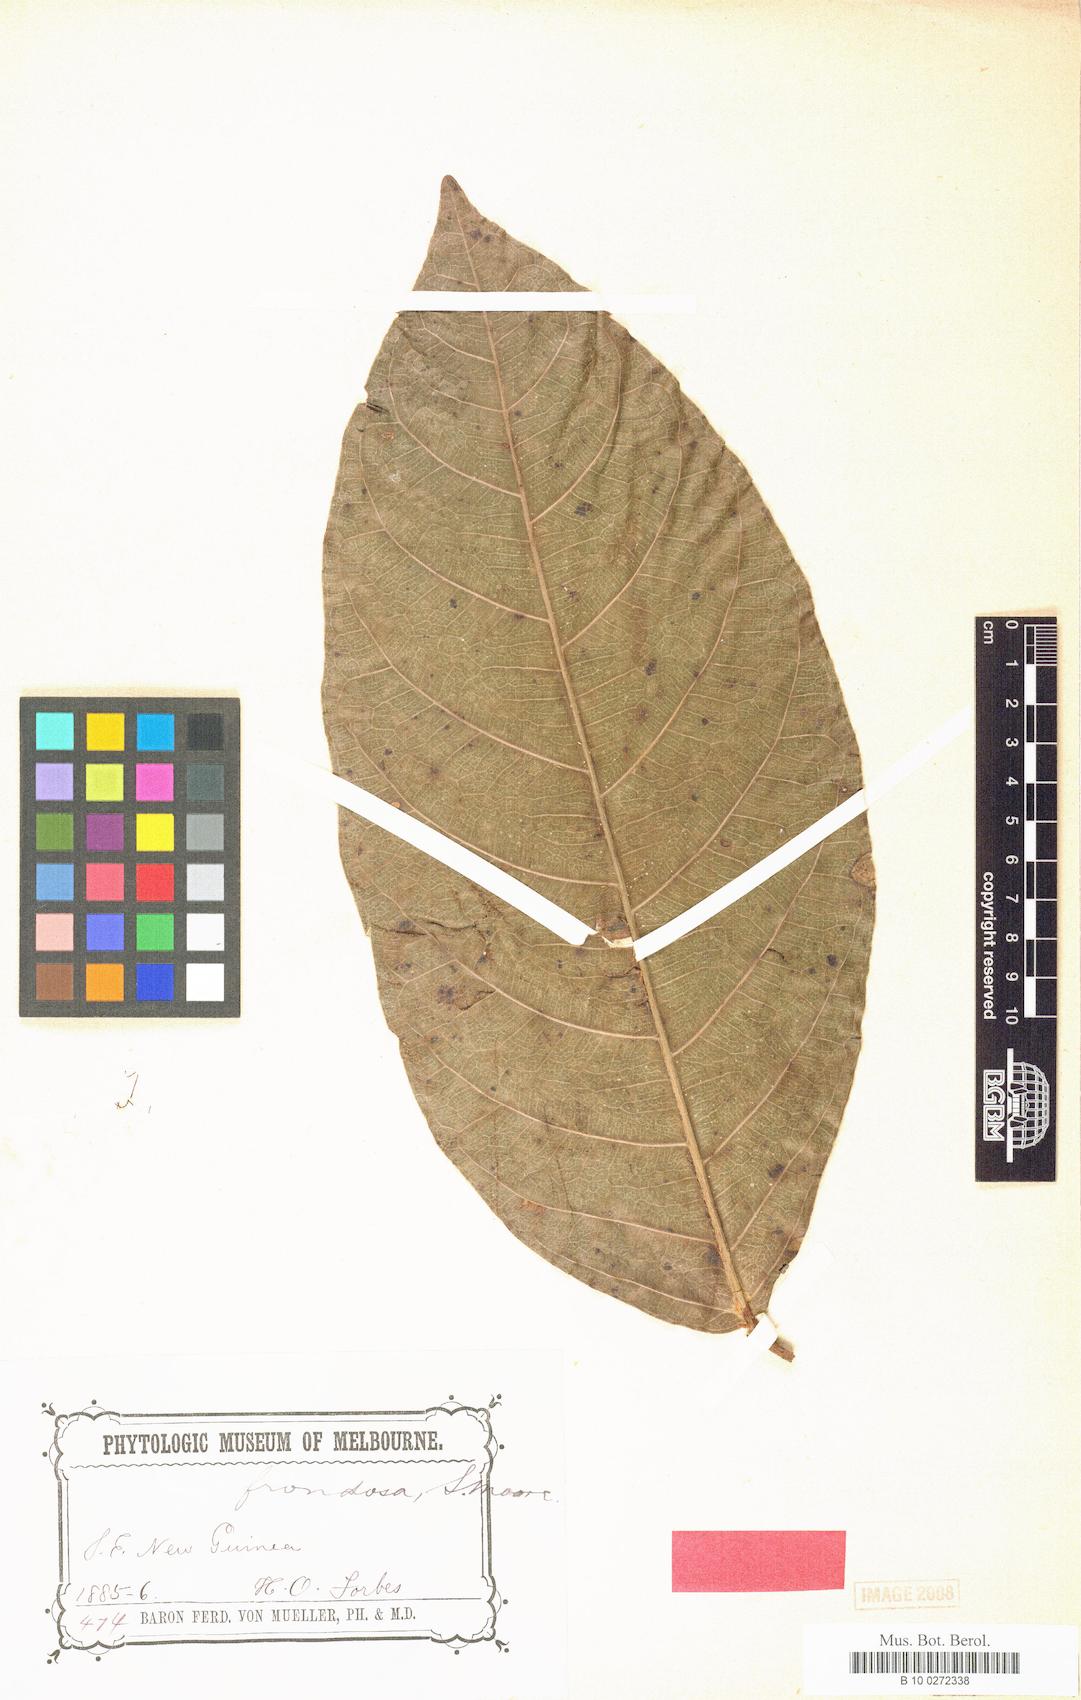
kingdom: Plantae
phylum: Tracheophyta
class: Magnoliopsida
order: Rosales
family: Moraceae
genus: Ficus
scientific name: Ficus polyantha
